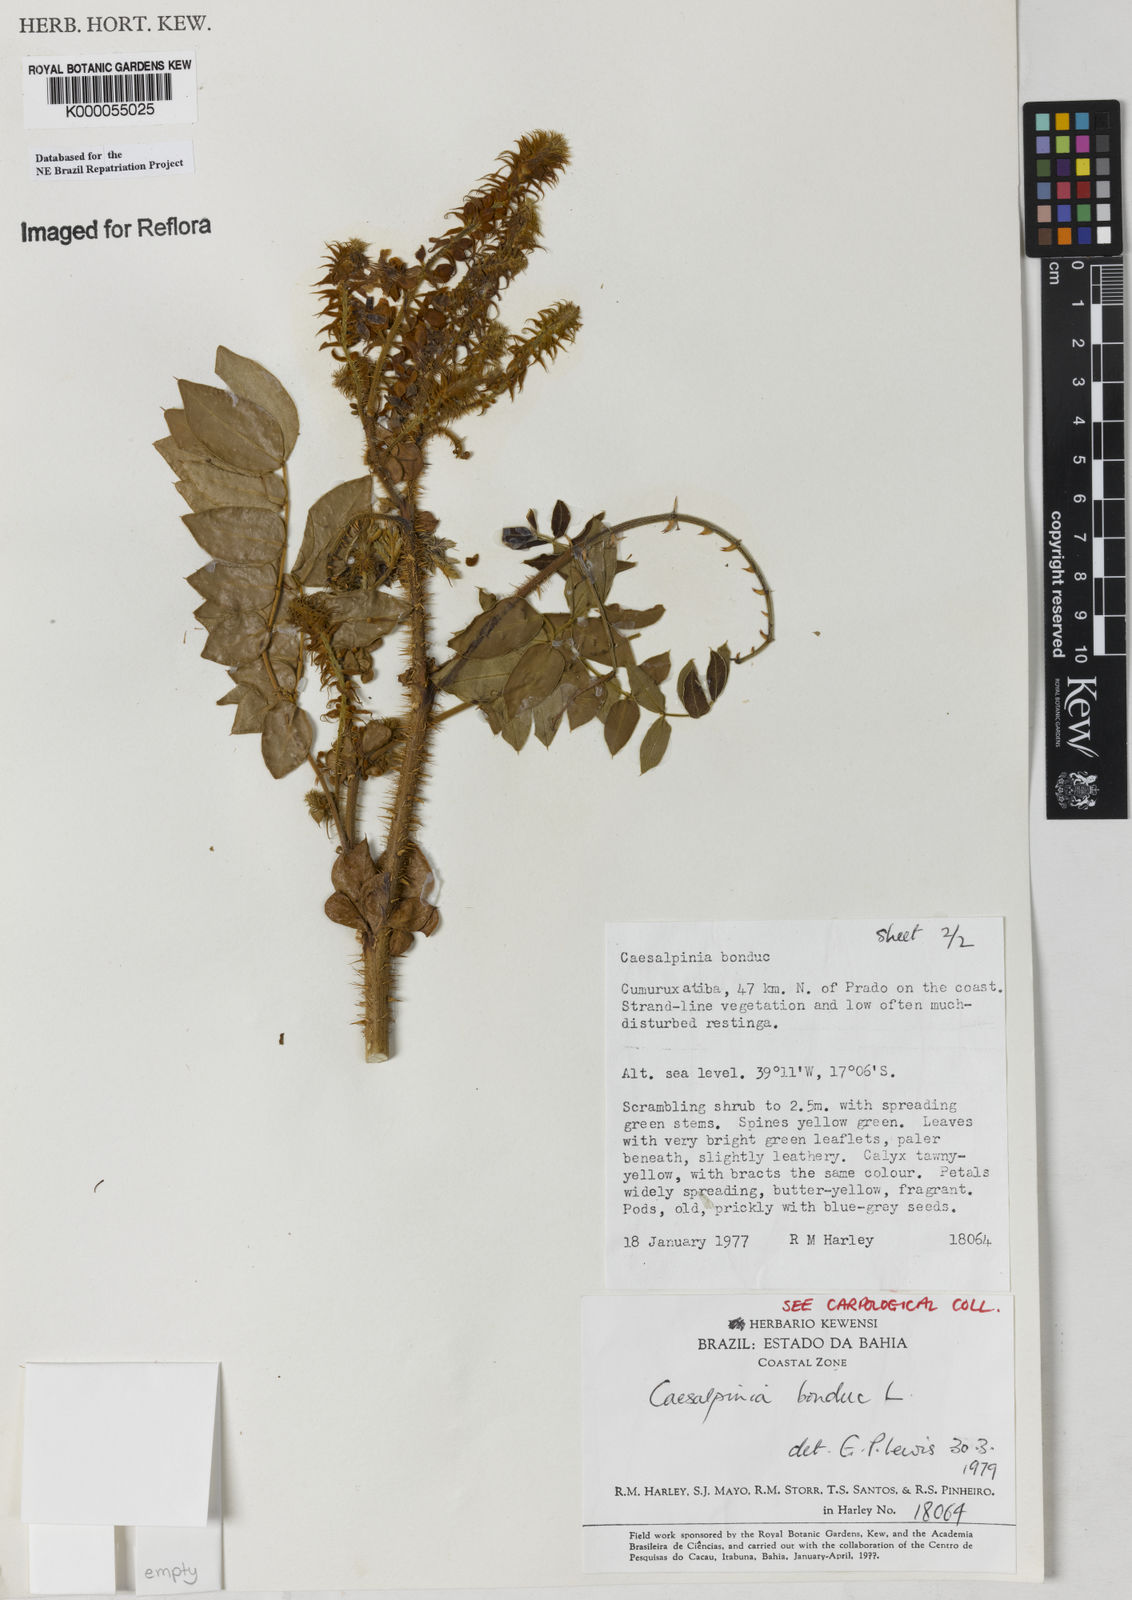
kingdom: Plantae
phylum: Tracheophyta
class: Magnoliopsida
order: Fabales
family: Fabaceae
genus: Guilandina
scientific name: Guilandina bonduc
